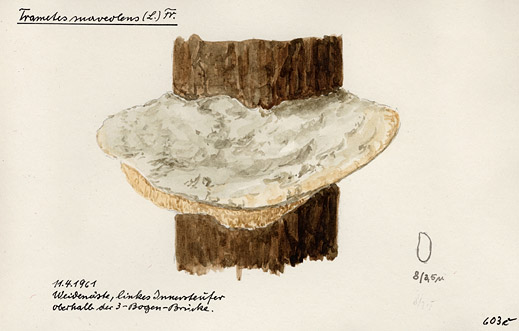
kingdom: Fungi
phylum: Basidiomycota
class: Agaricomycetes
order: Polyporales
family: Polyporaceae
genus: Trametes
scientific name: Trametes suaveolens
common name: Fragrant bracket
